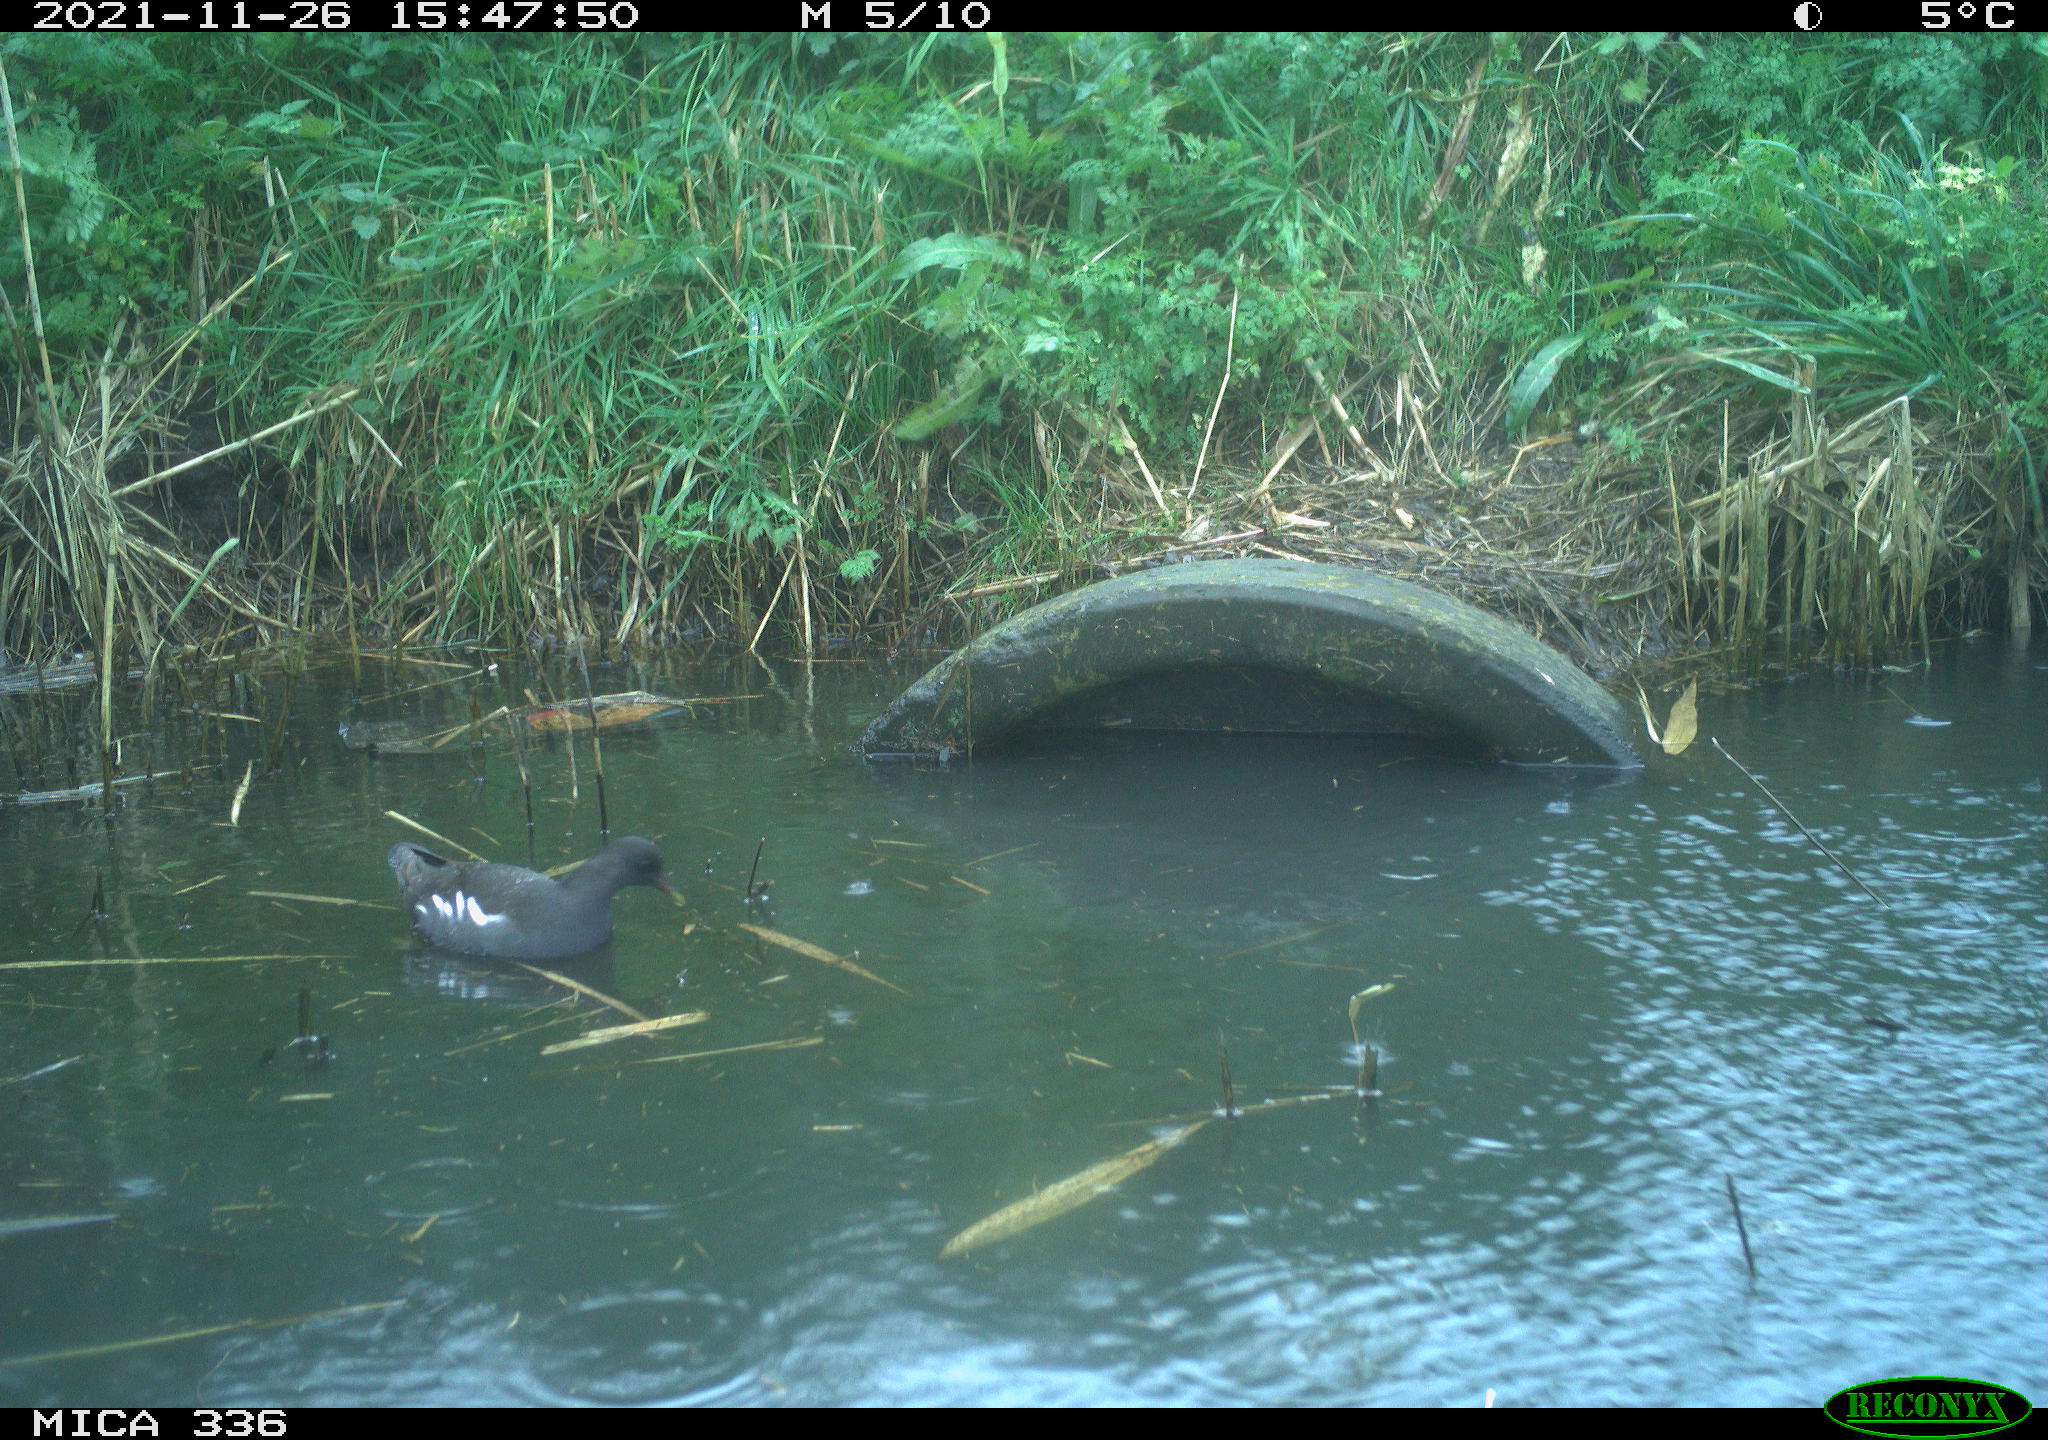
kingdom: Animalia
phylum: Chordata
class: Aves
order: Gruiformes
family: Rallidae
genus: Gallinula
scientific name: Gallinula chloropus
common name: Common moorhen
